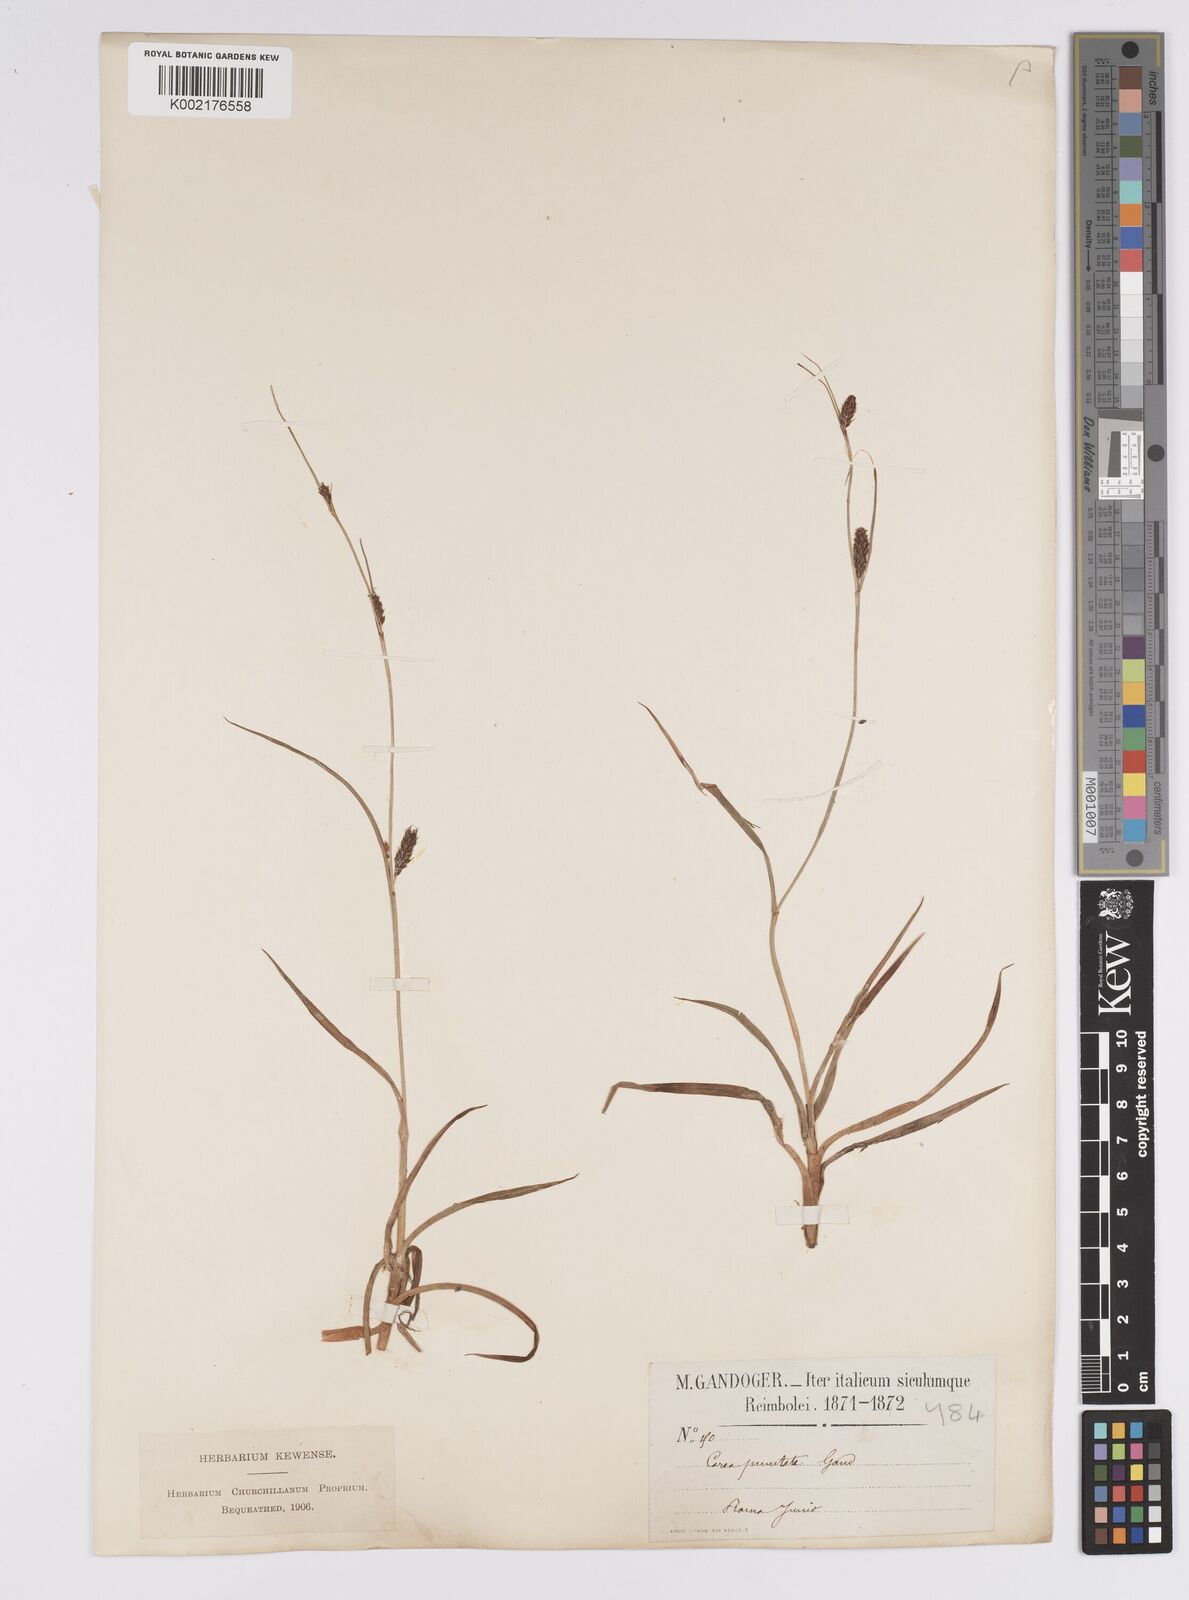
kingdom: Plantae
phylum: Tracheophyta
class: Liliopsida
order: Poales
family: Cyperaceae
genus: Carex
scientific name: Carex distans
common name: Distant sedge
